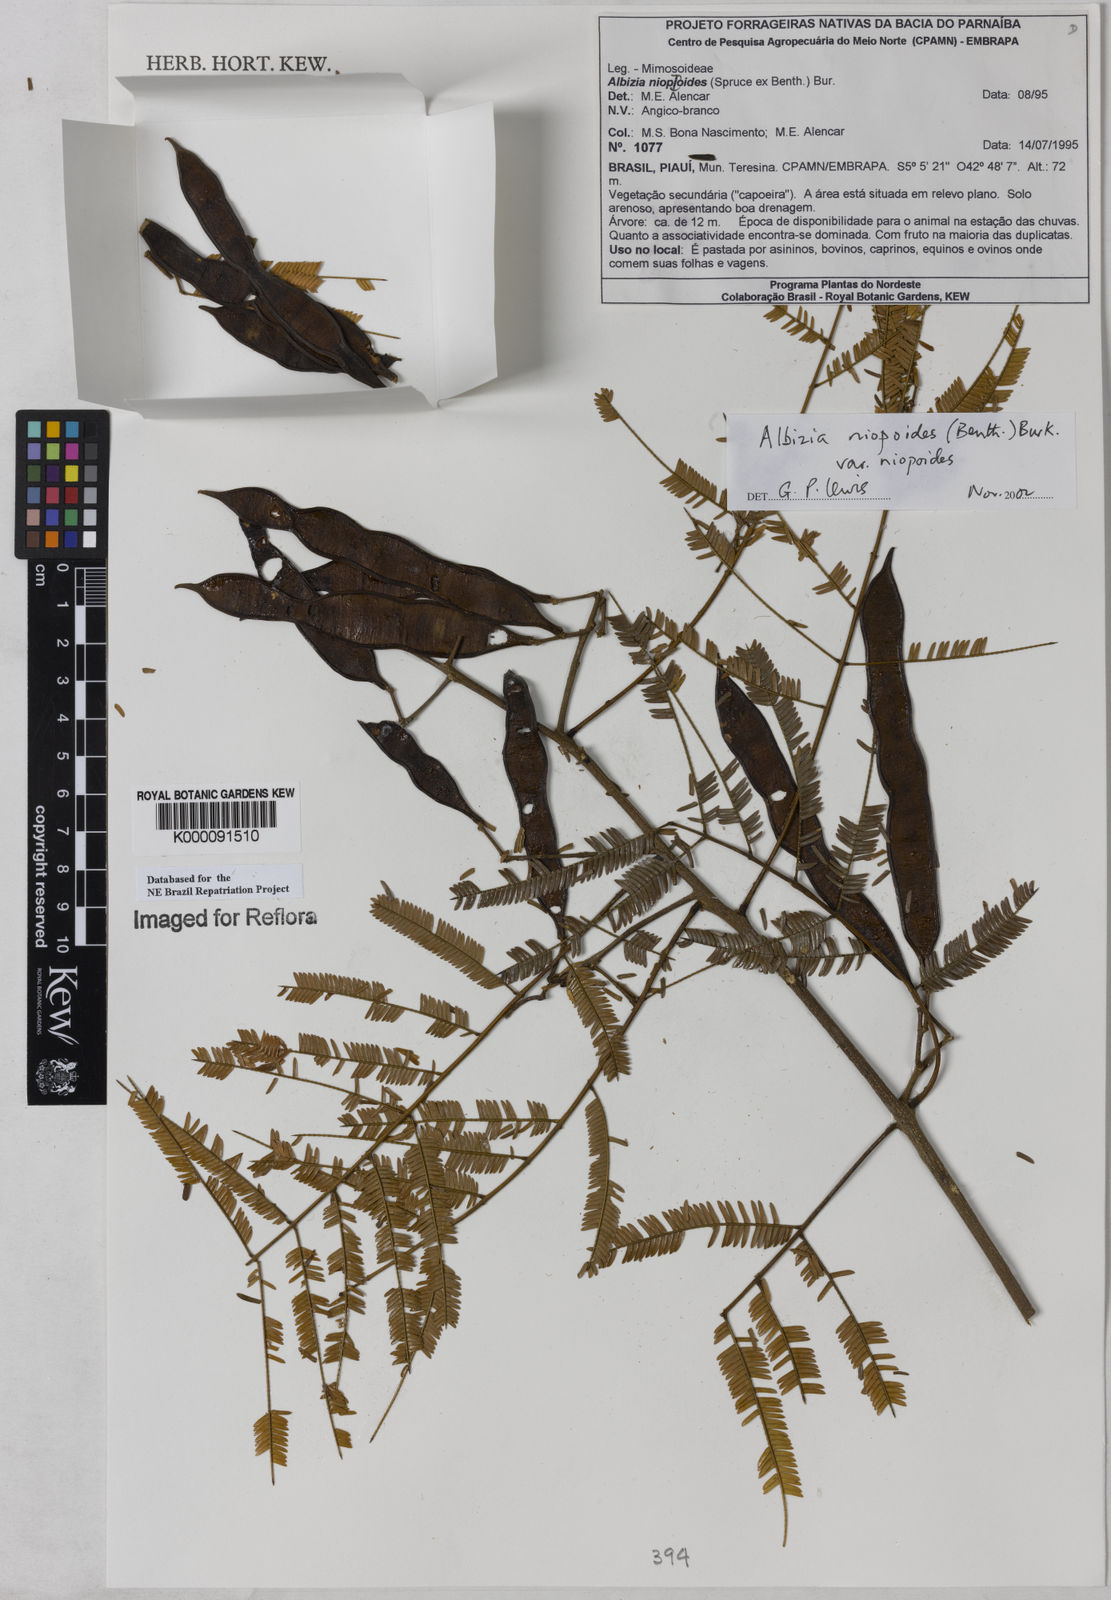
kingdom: Plantae
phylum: Tracheophyta
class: Magnoliopsida
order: Fabales
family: Fabaceae
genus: Albizia
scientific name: Albizia niopoides
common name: Silk tree
